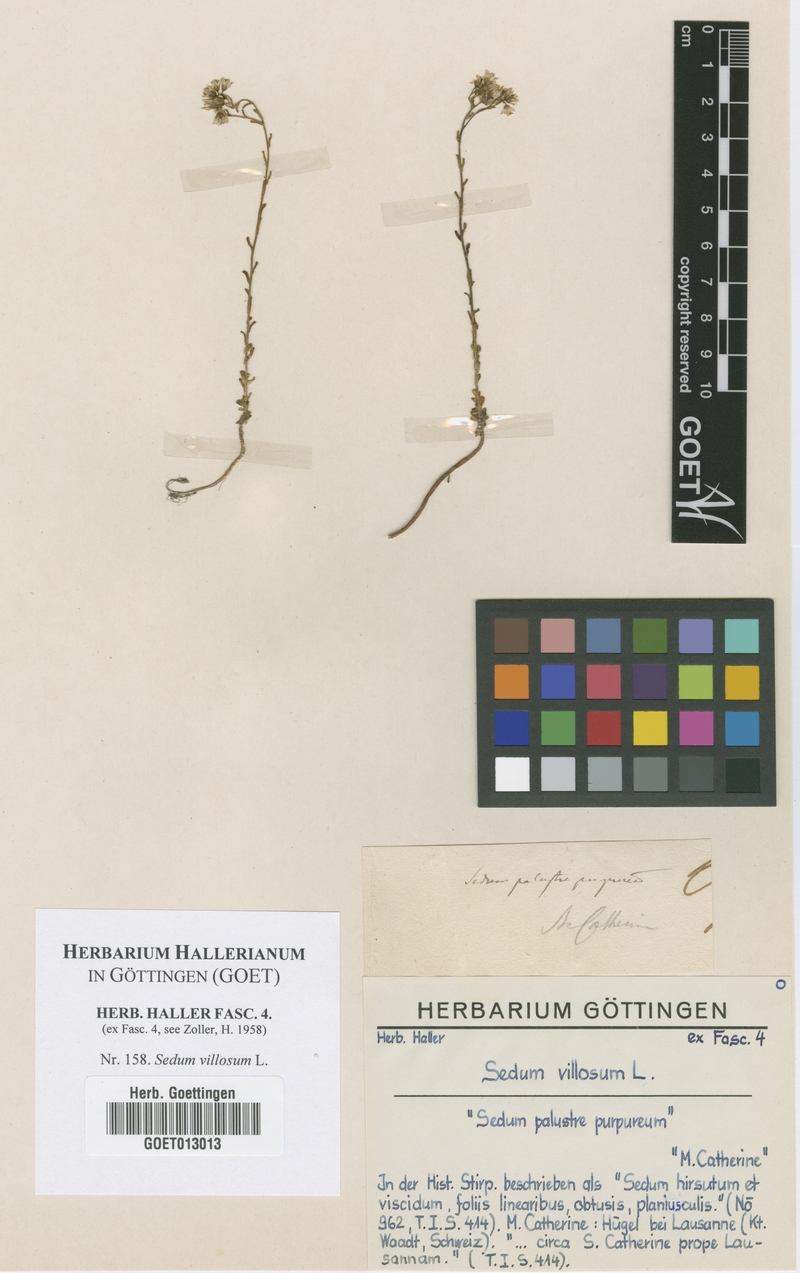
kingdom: Plantae
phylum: Tracheophyta
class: Magnoliopsida
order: Saxifragales
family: Crassulaceae
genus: Sedum
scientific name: Sedum villosum
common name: Hairy stonecrop
